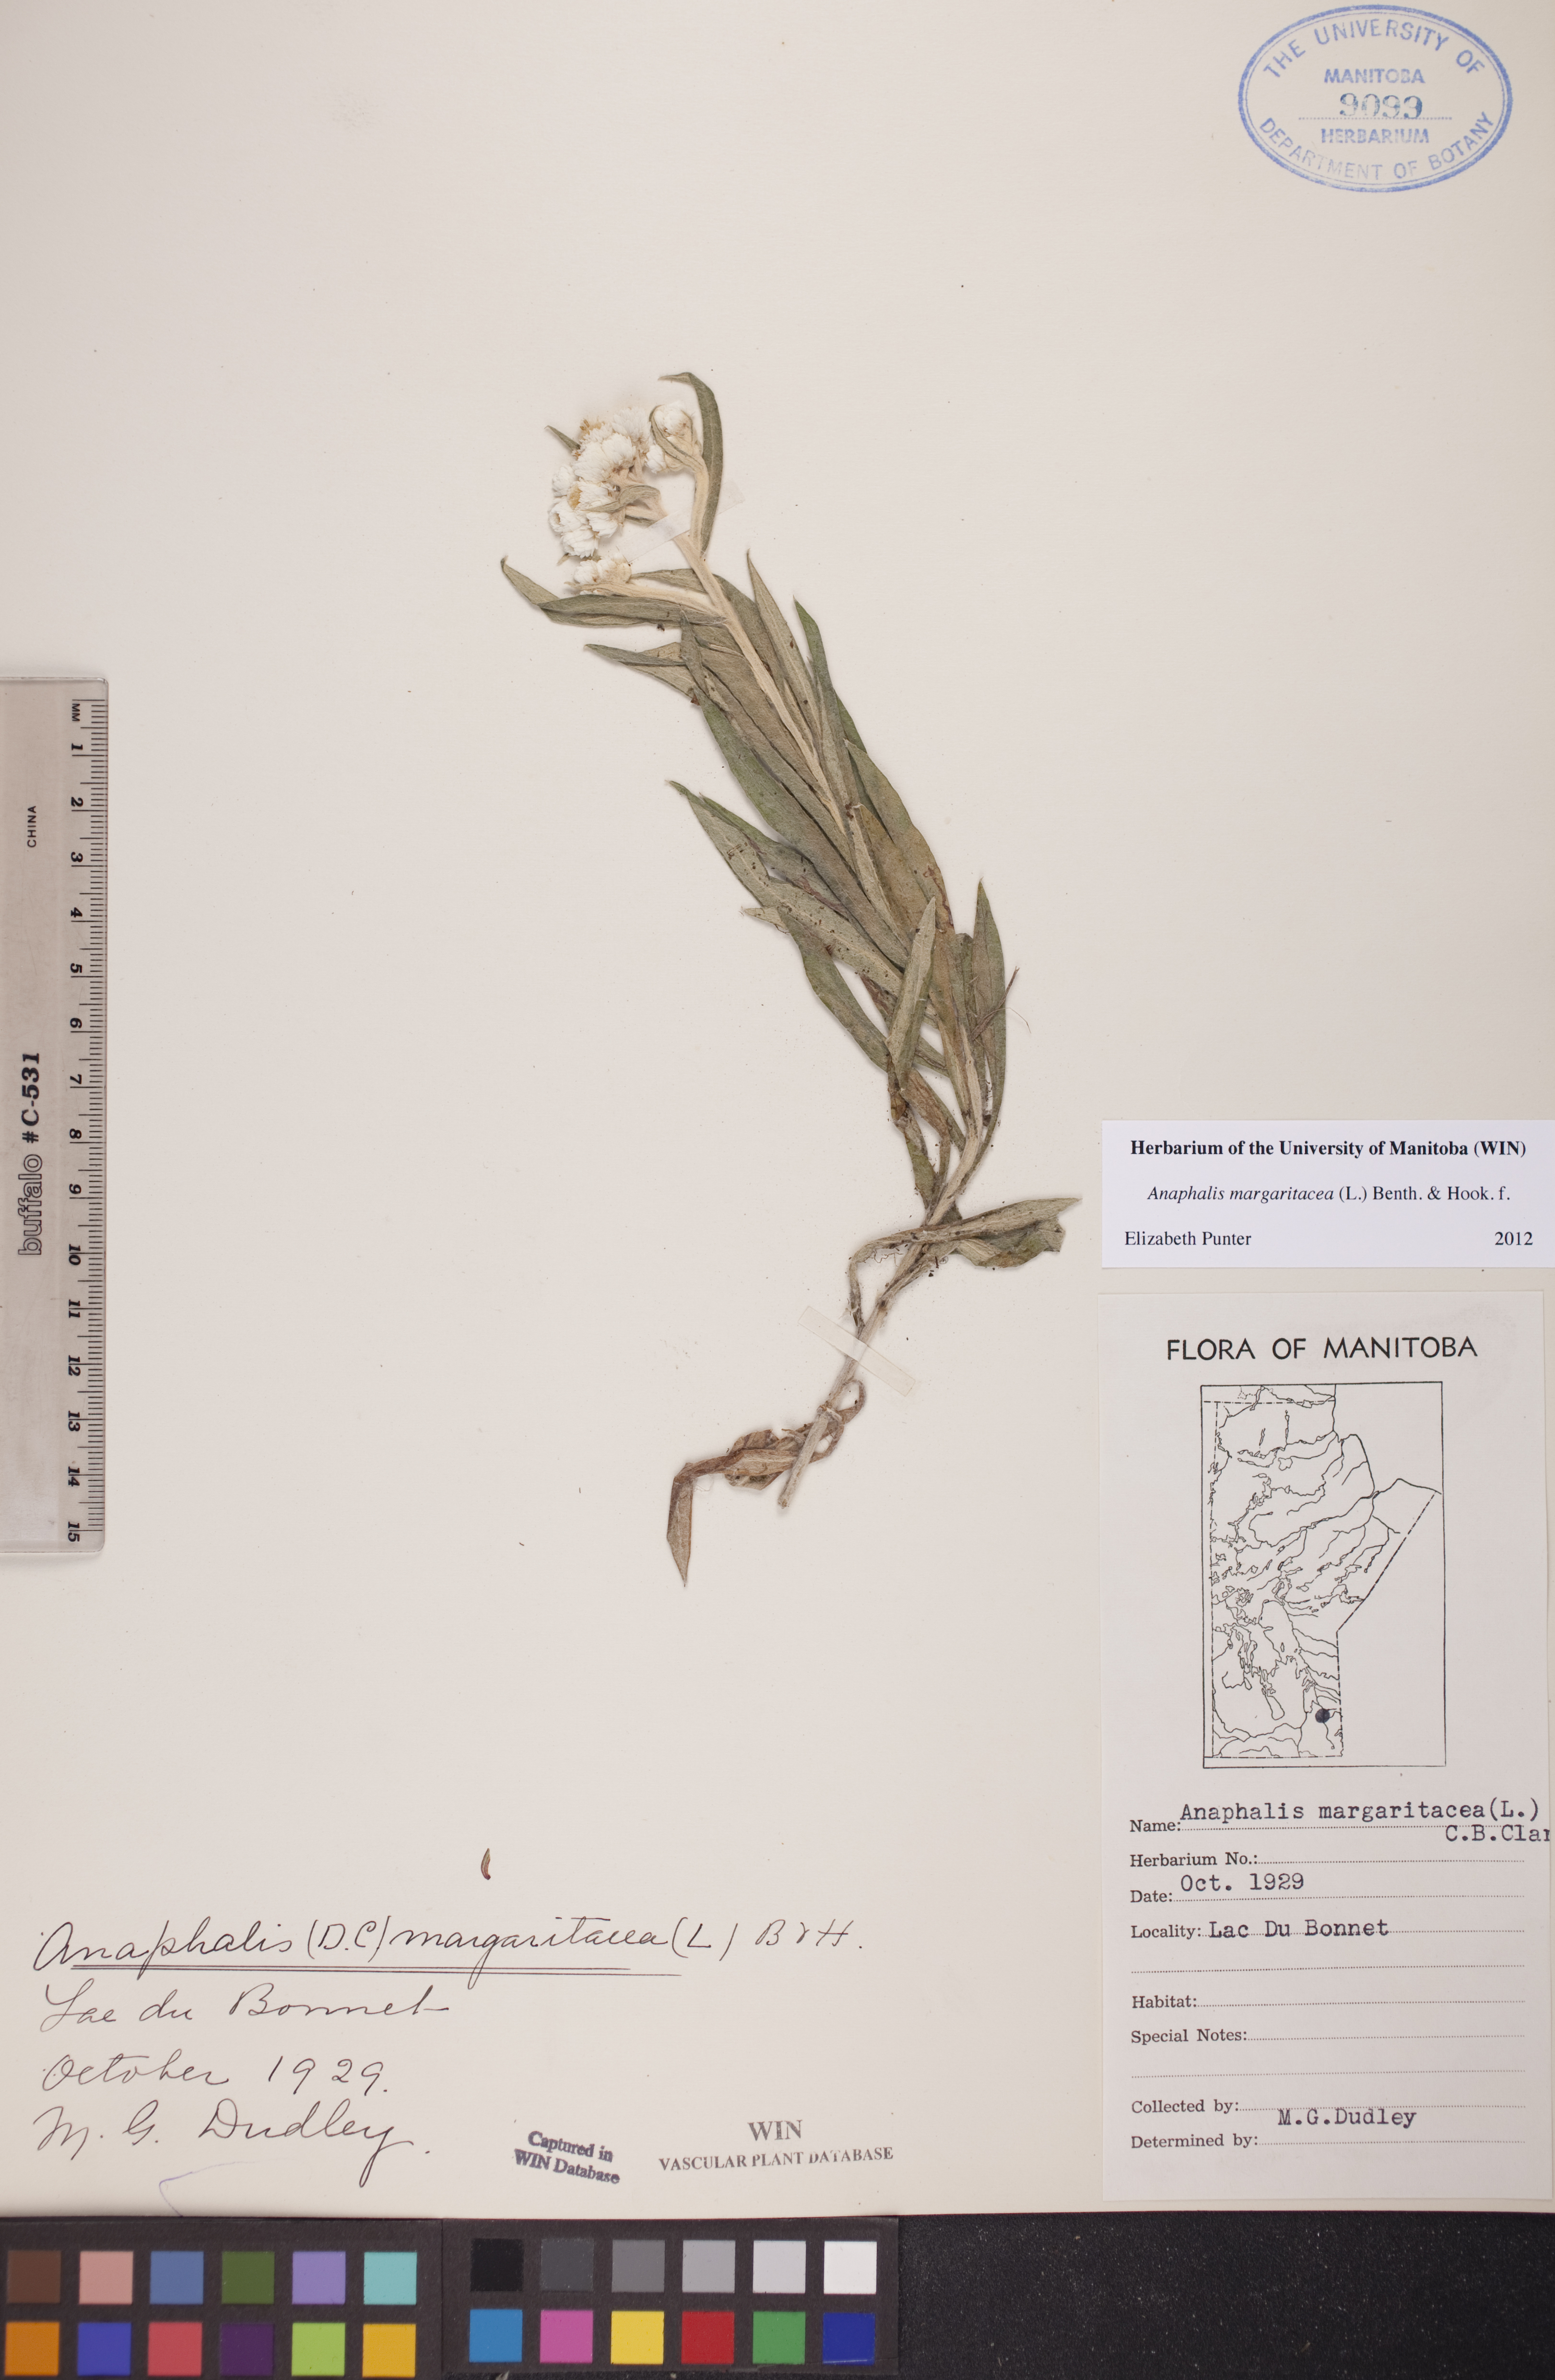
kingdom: Plantae
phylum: Tracheophyta
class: Magnoliopsida
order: Asterales
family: Asteraceae
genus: Anaphalis
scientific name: Anaphalis margaritacea
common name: Pearly everlasting
